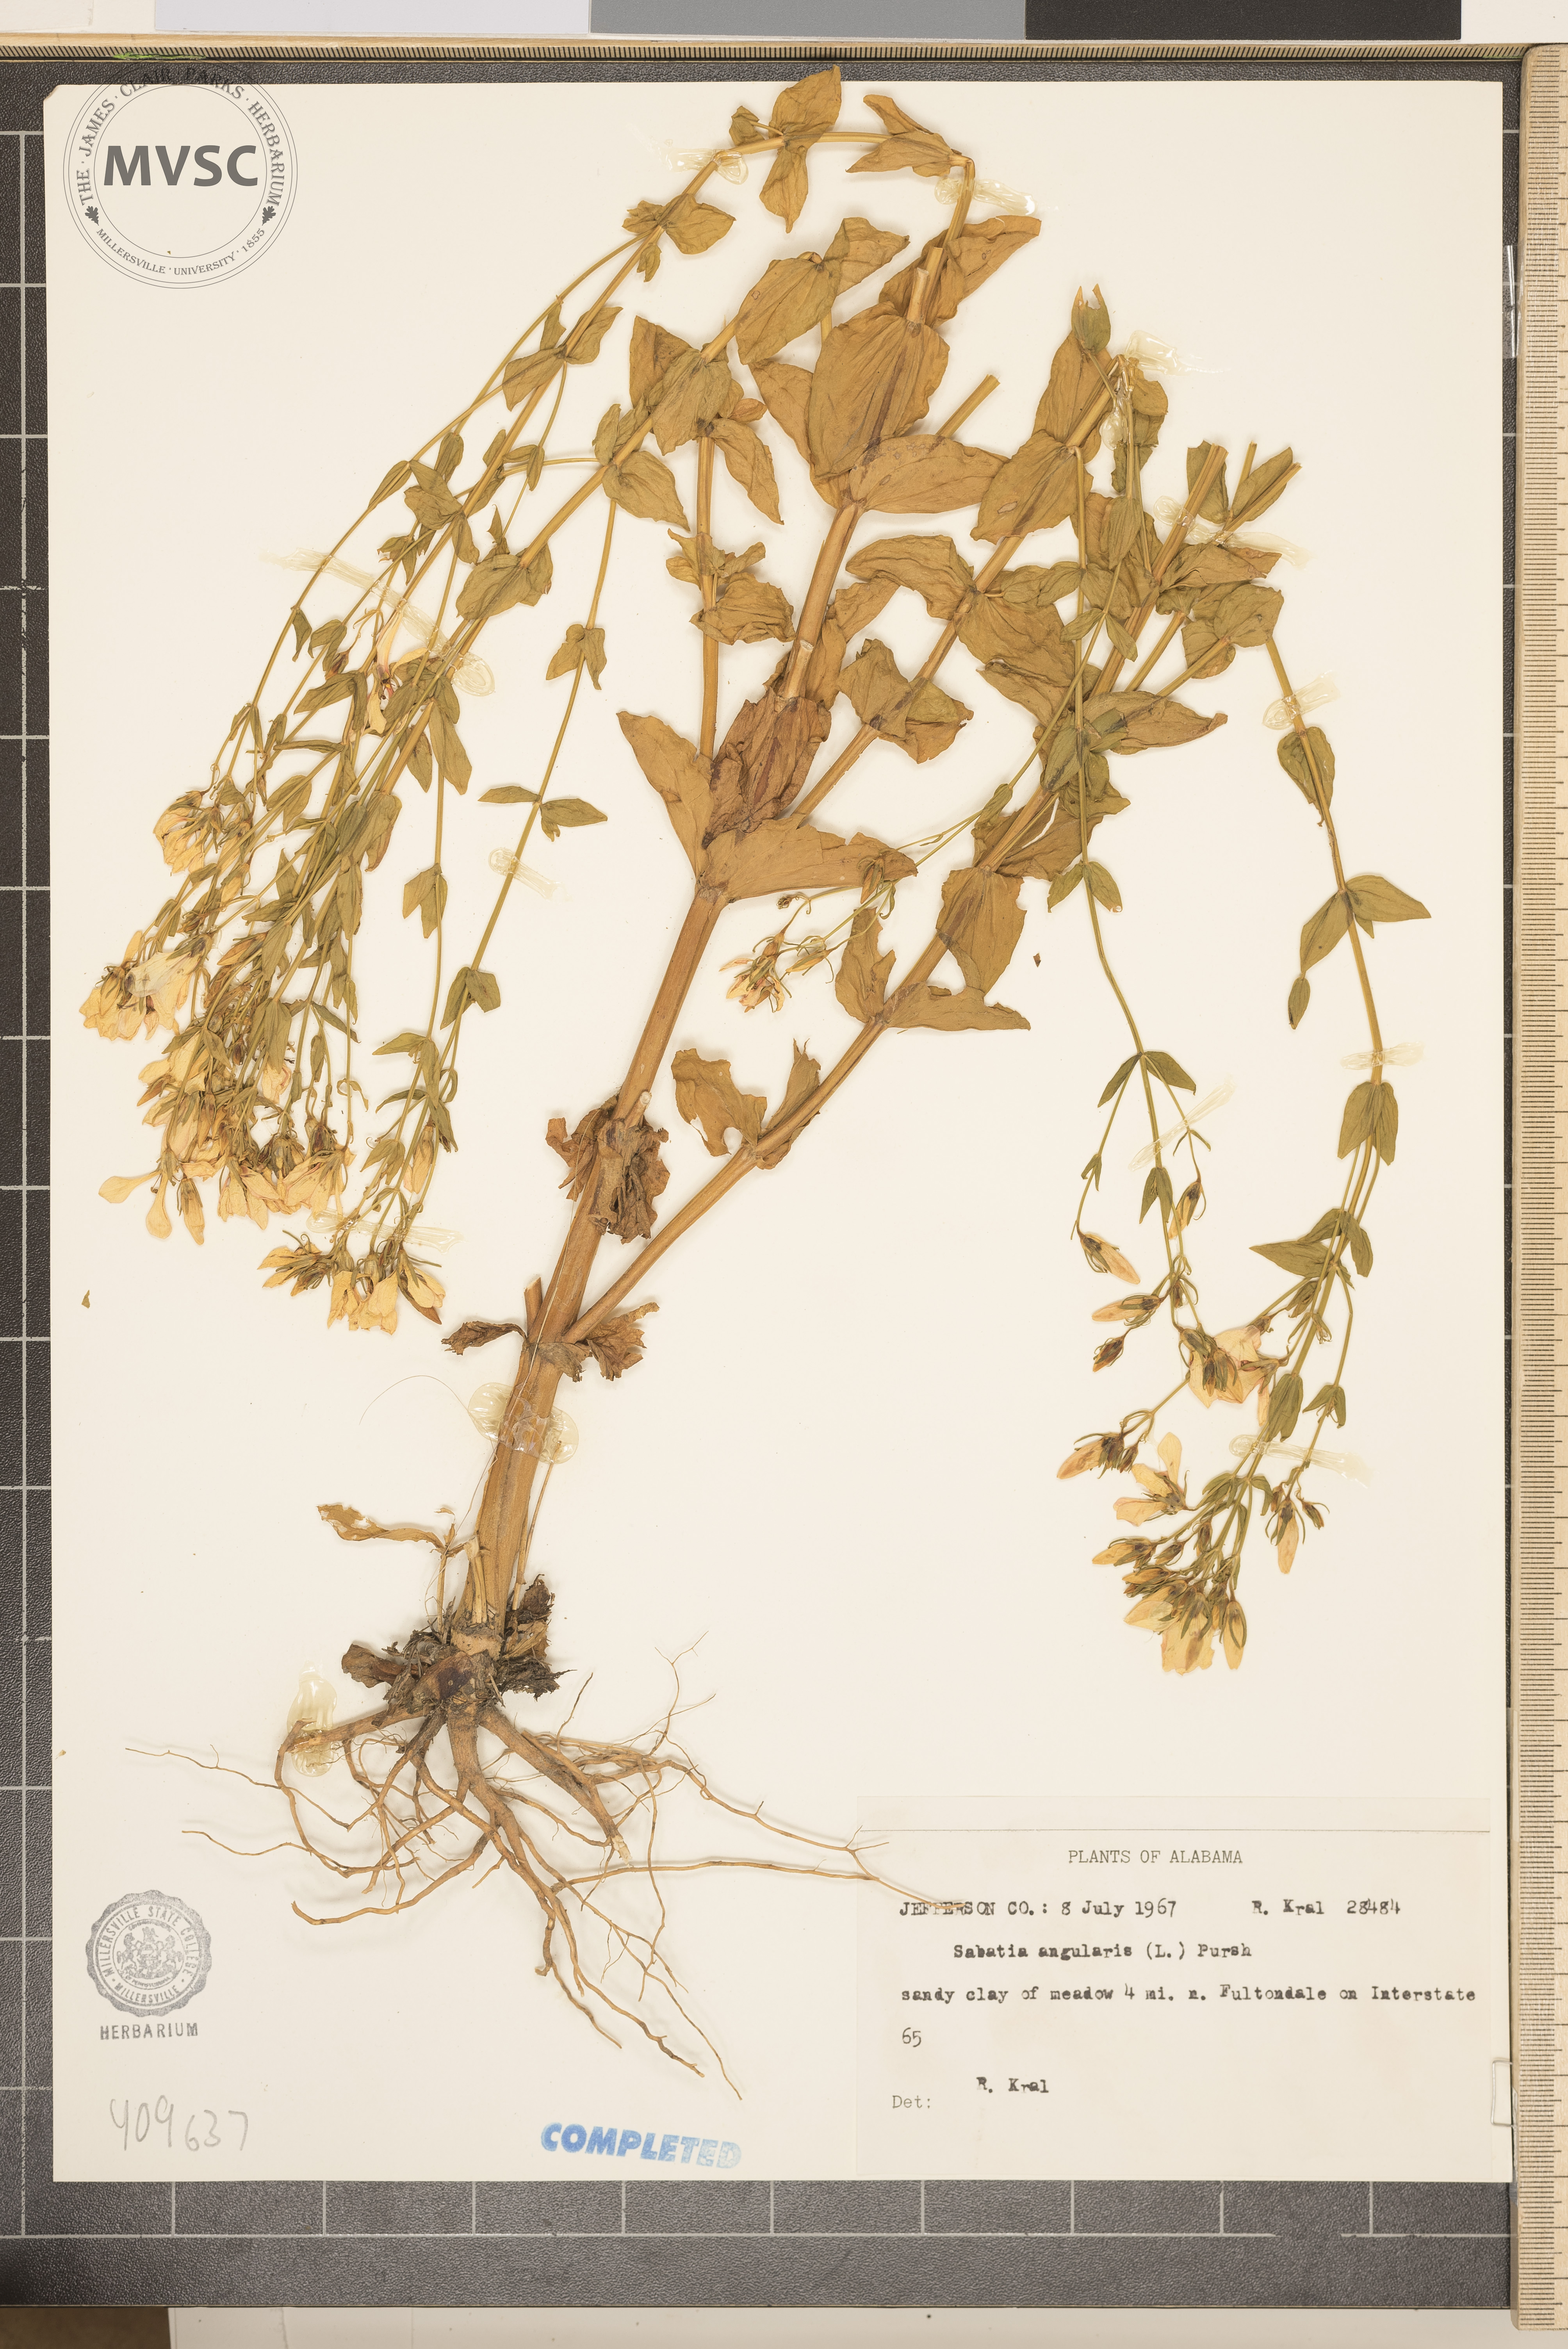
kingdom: Plantae
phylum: Tracheophyta
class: Magnoliopsida
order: Gentianales
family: Gentianaceae
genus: Sabatia
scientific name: Sabatia angularis
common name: Rose-pink
